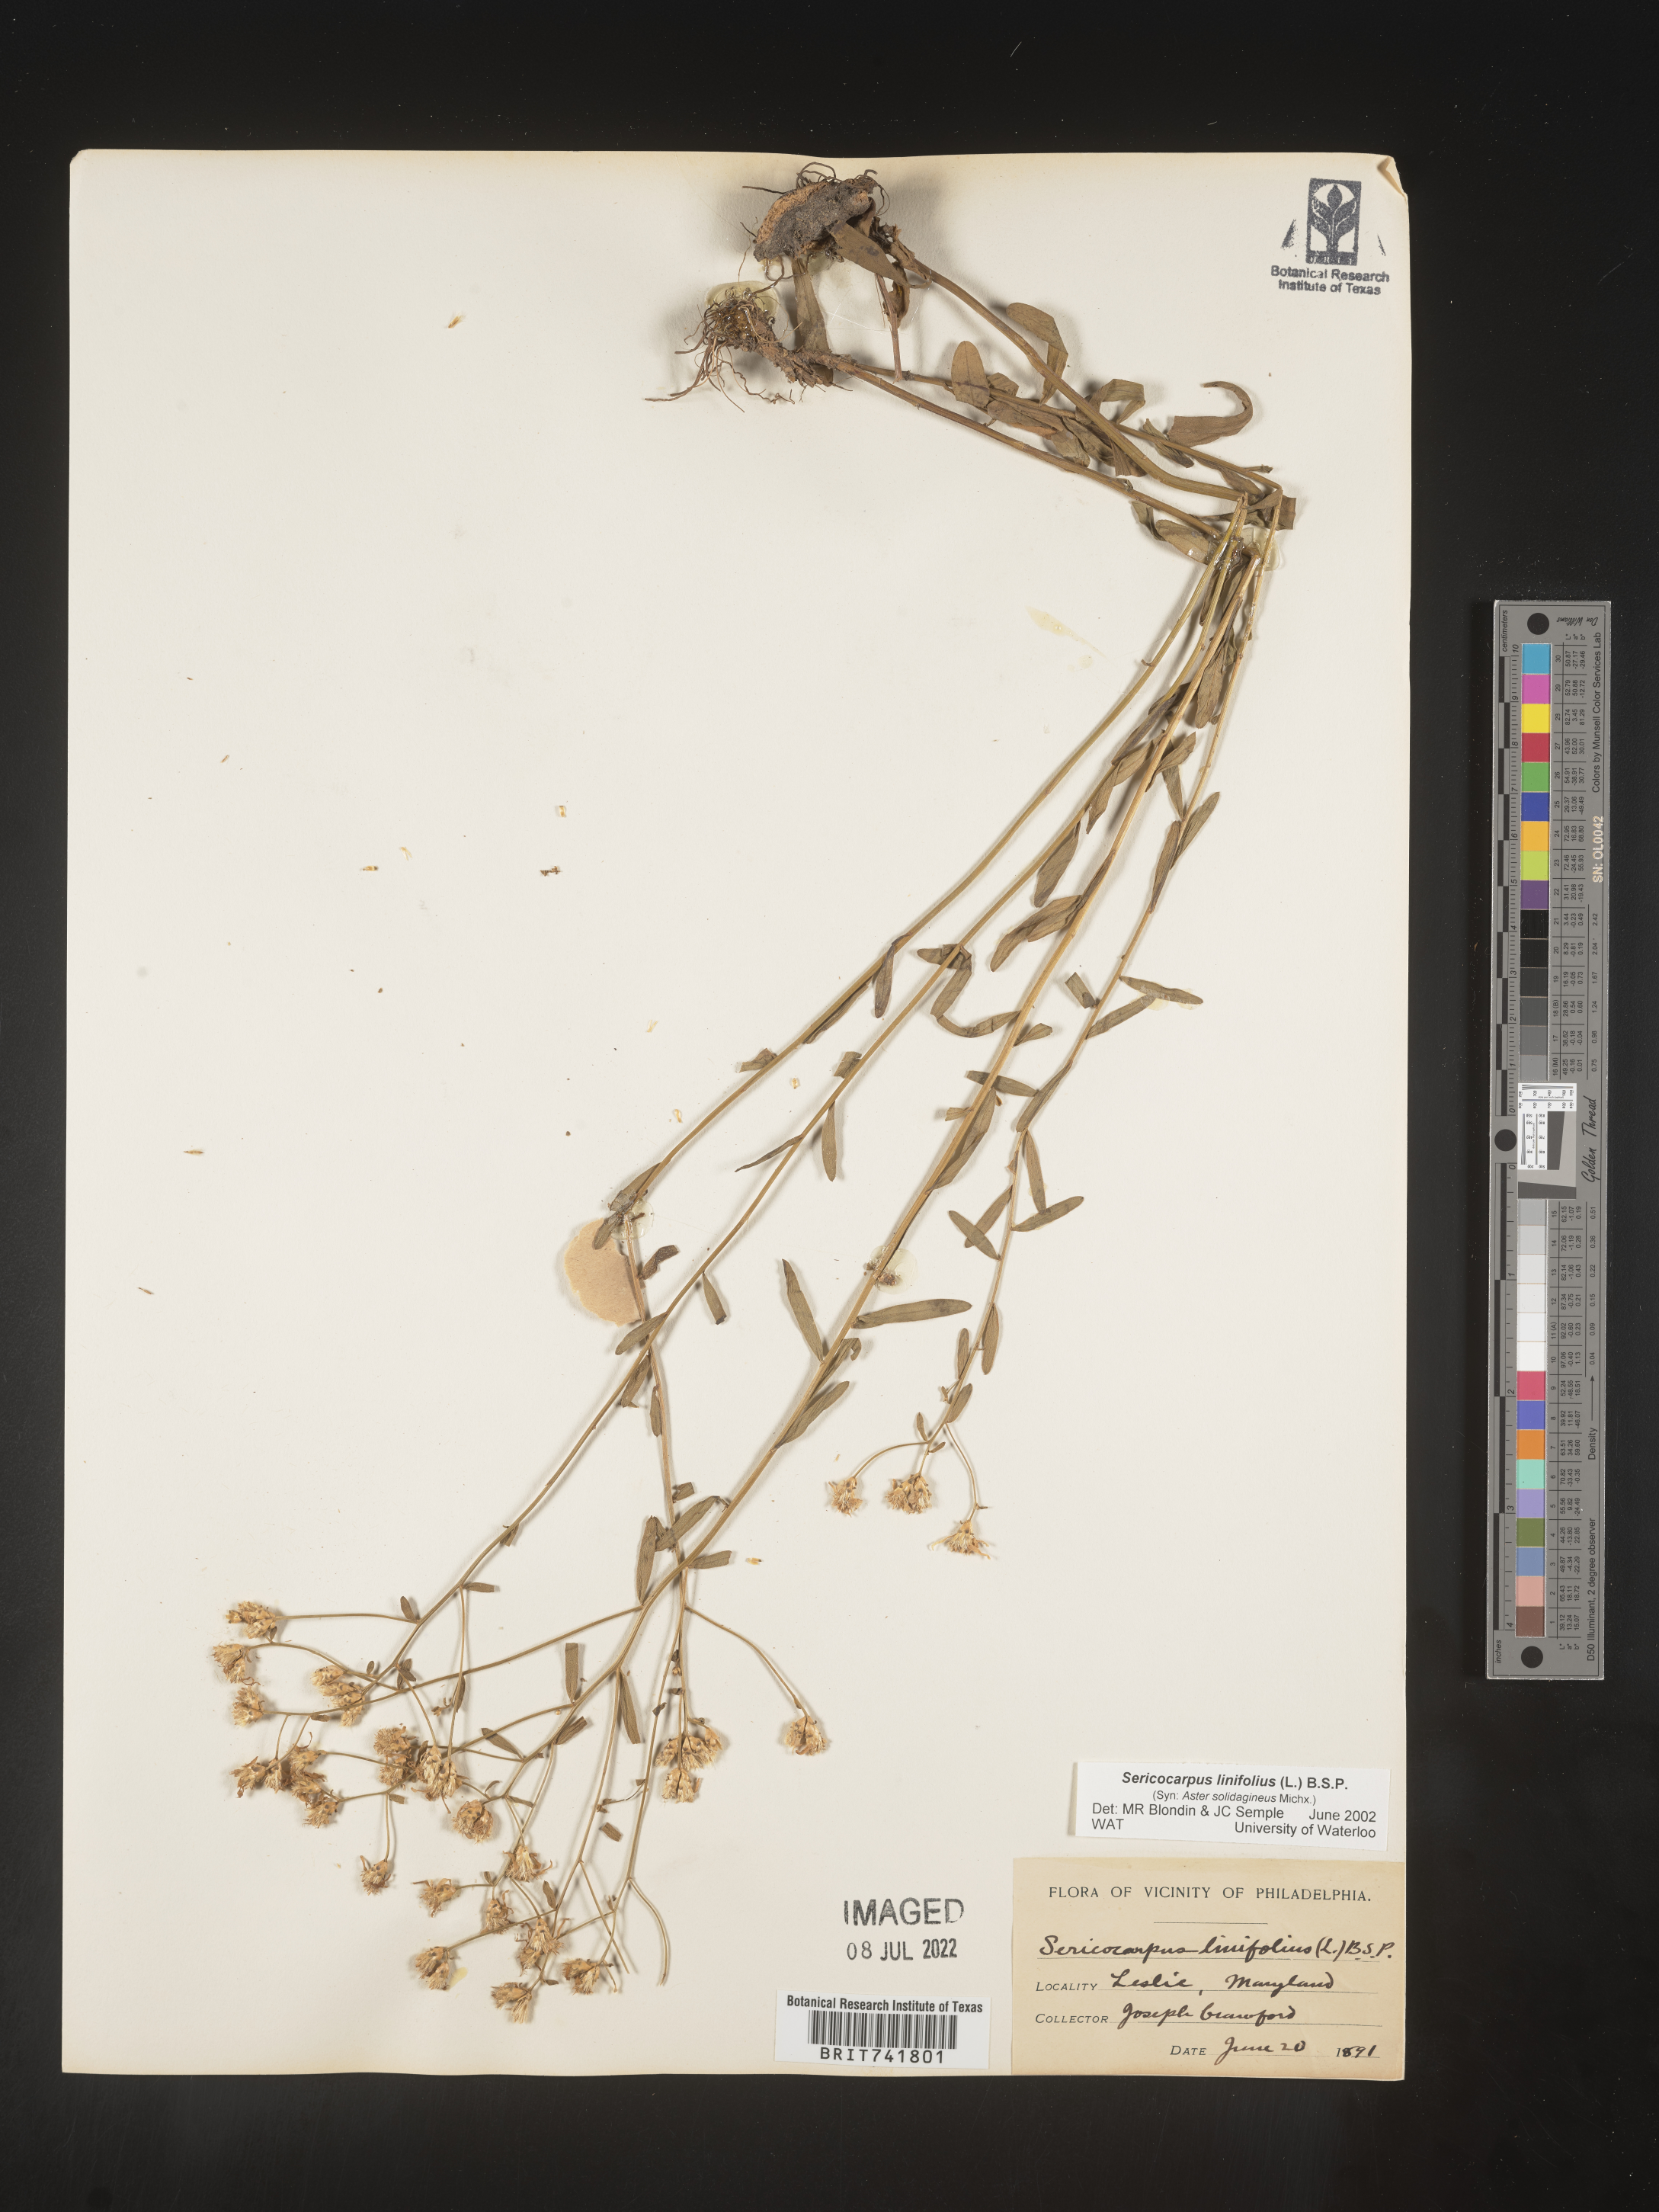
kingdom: Plantae
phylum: Tracheophyta
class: Magnoliopsida
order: Asterales
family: Asteraceae
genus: Sericocarpus
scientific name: Sericocarpus linifolius
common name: Narrow-leaf aster
